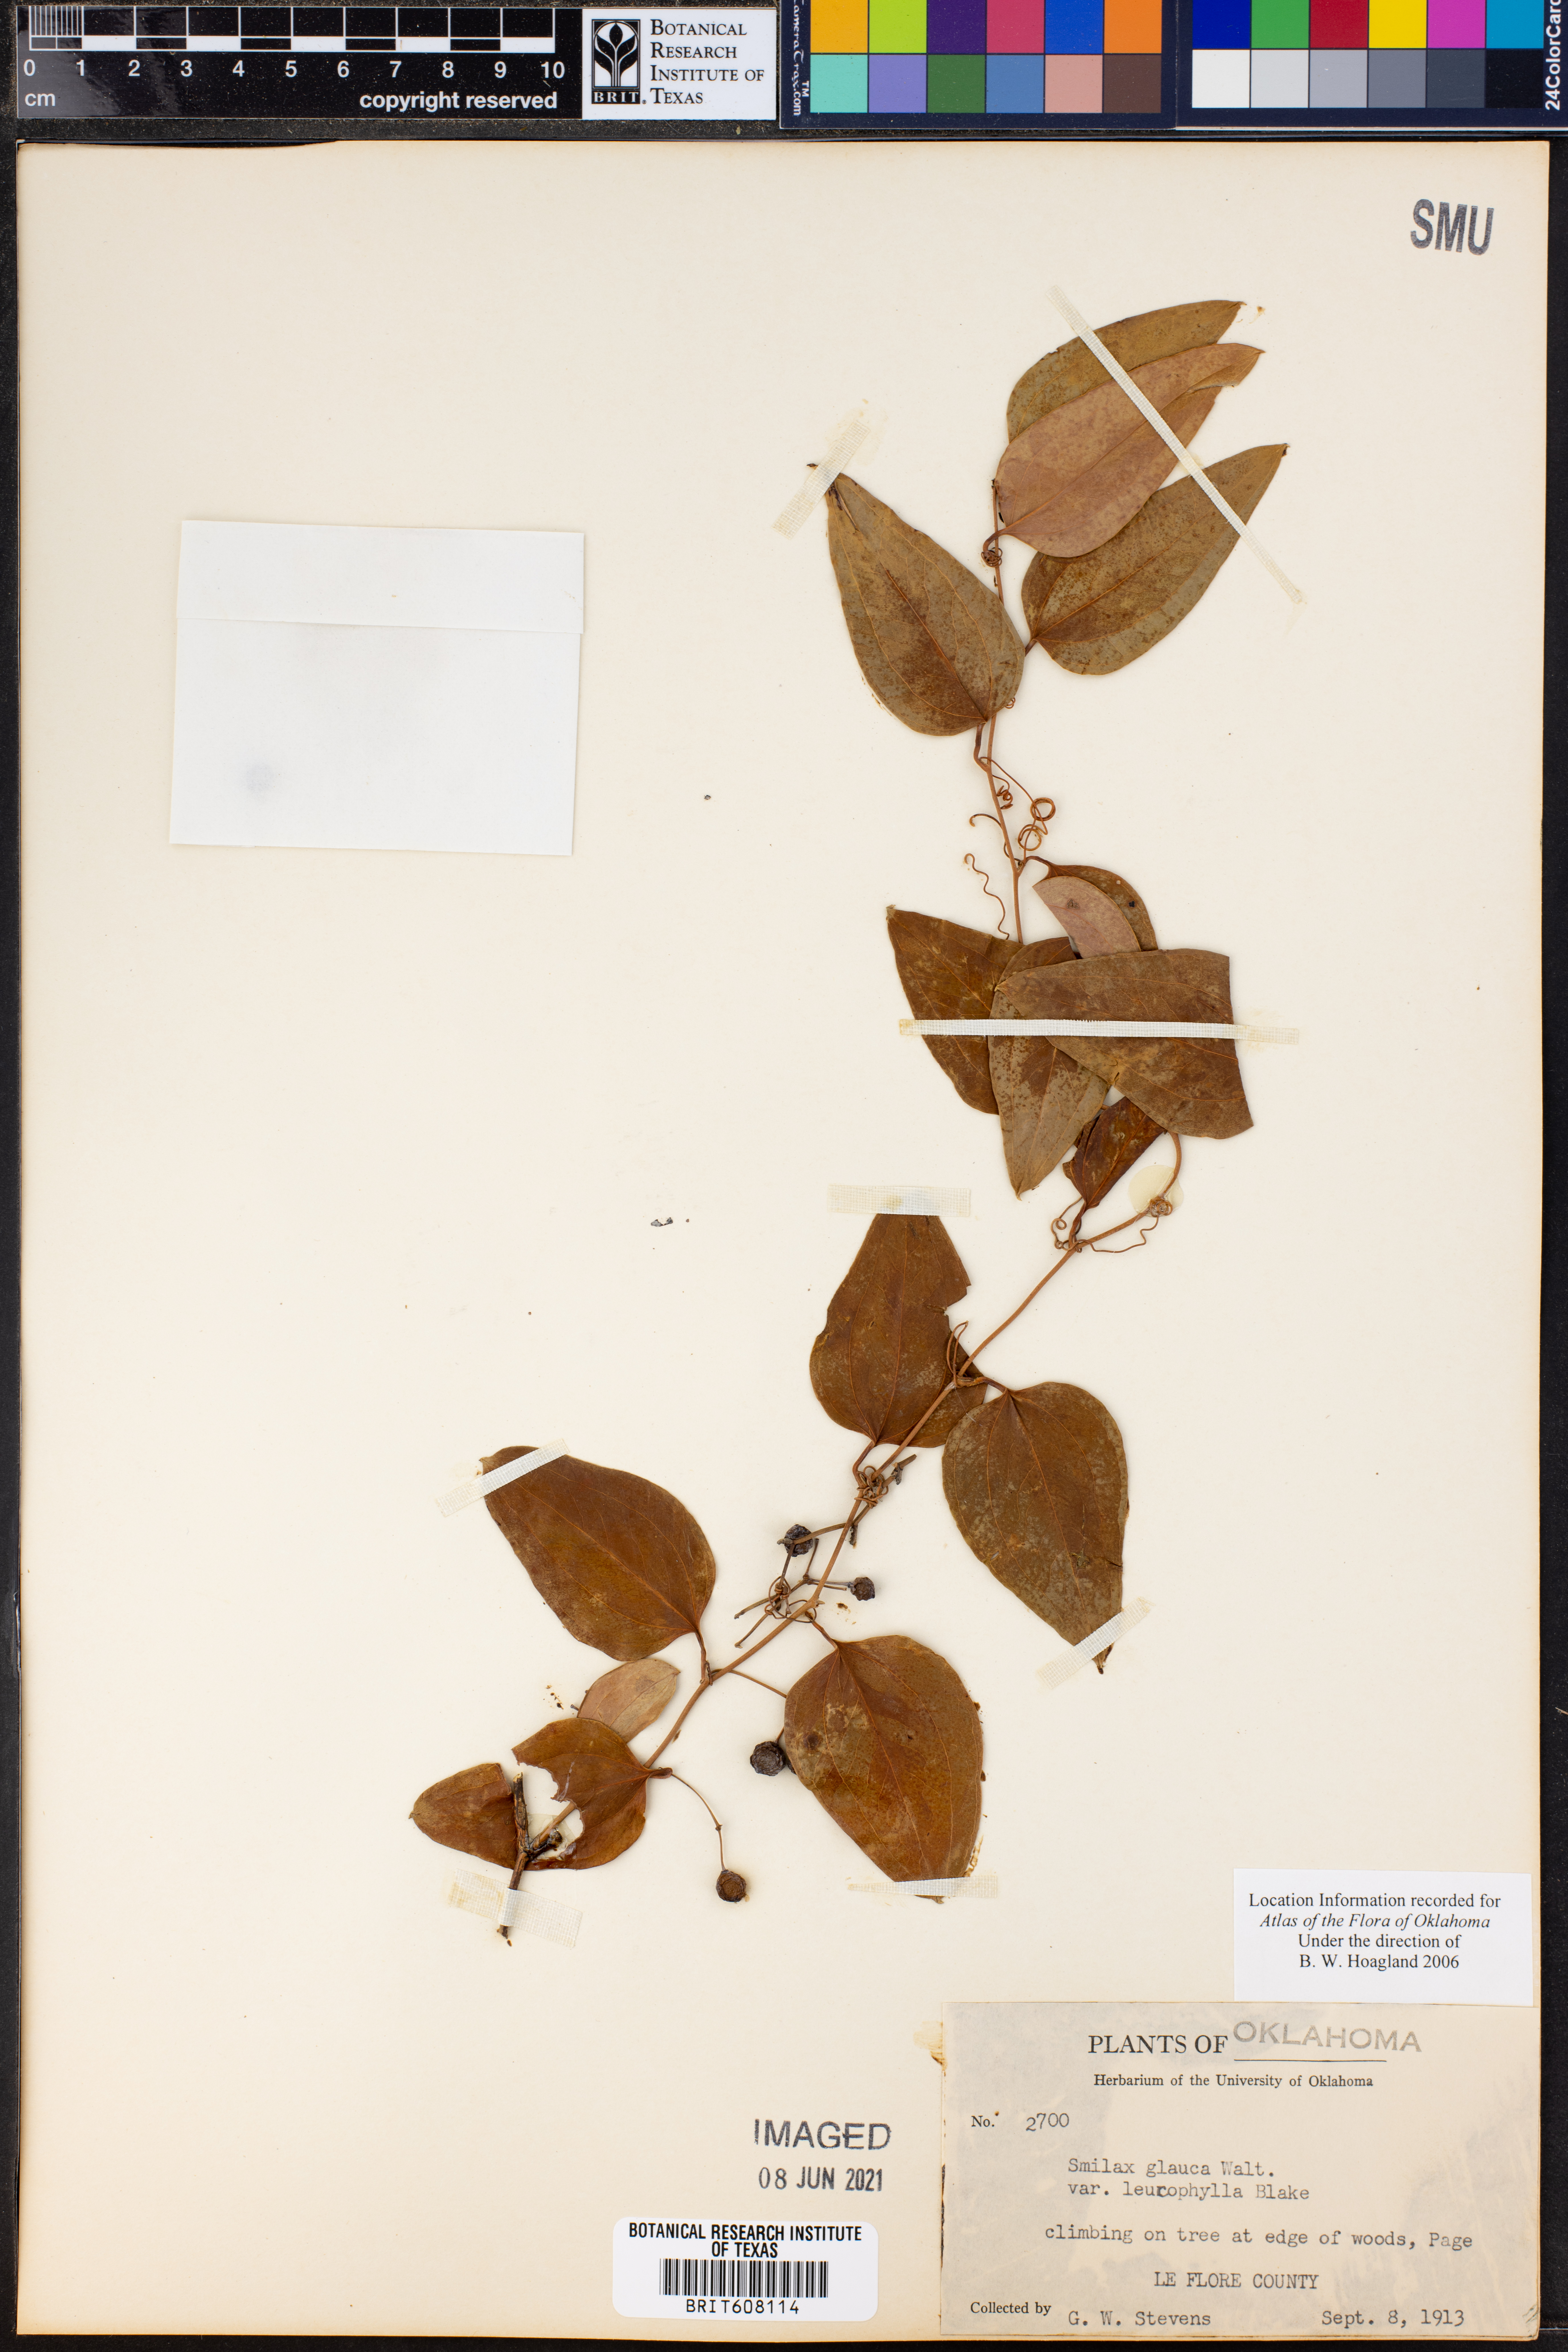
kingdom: Plantae
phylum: Tracheophyta
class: Liliopsida
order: Liliales
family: Smilacaceae
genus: Smilax
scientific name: Smilax glauca
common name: Cat greenbrier
